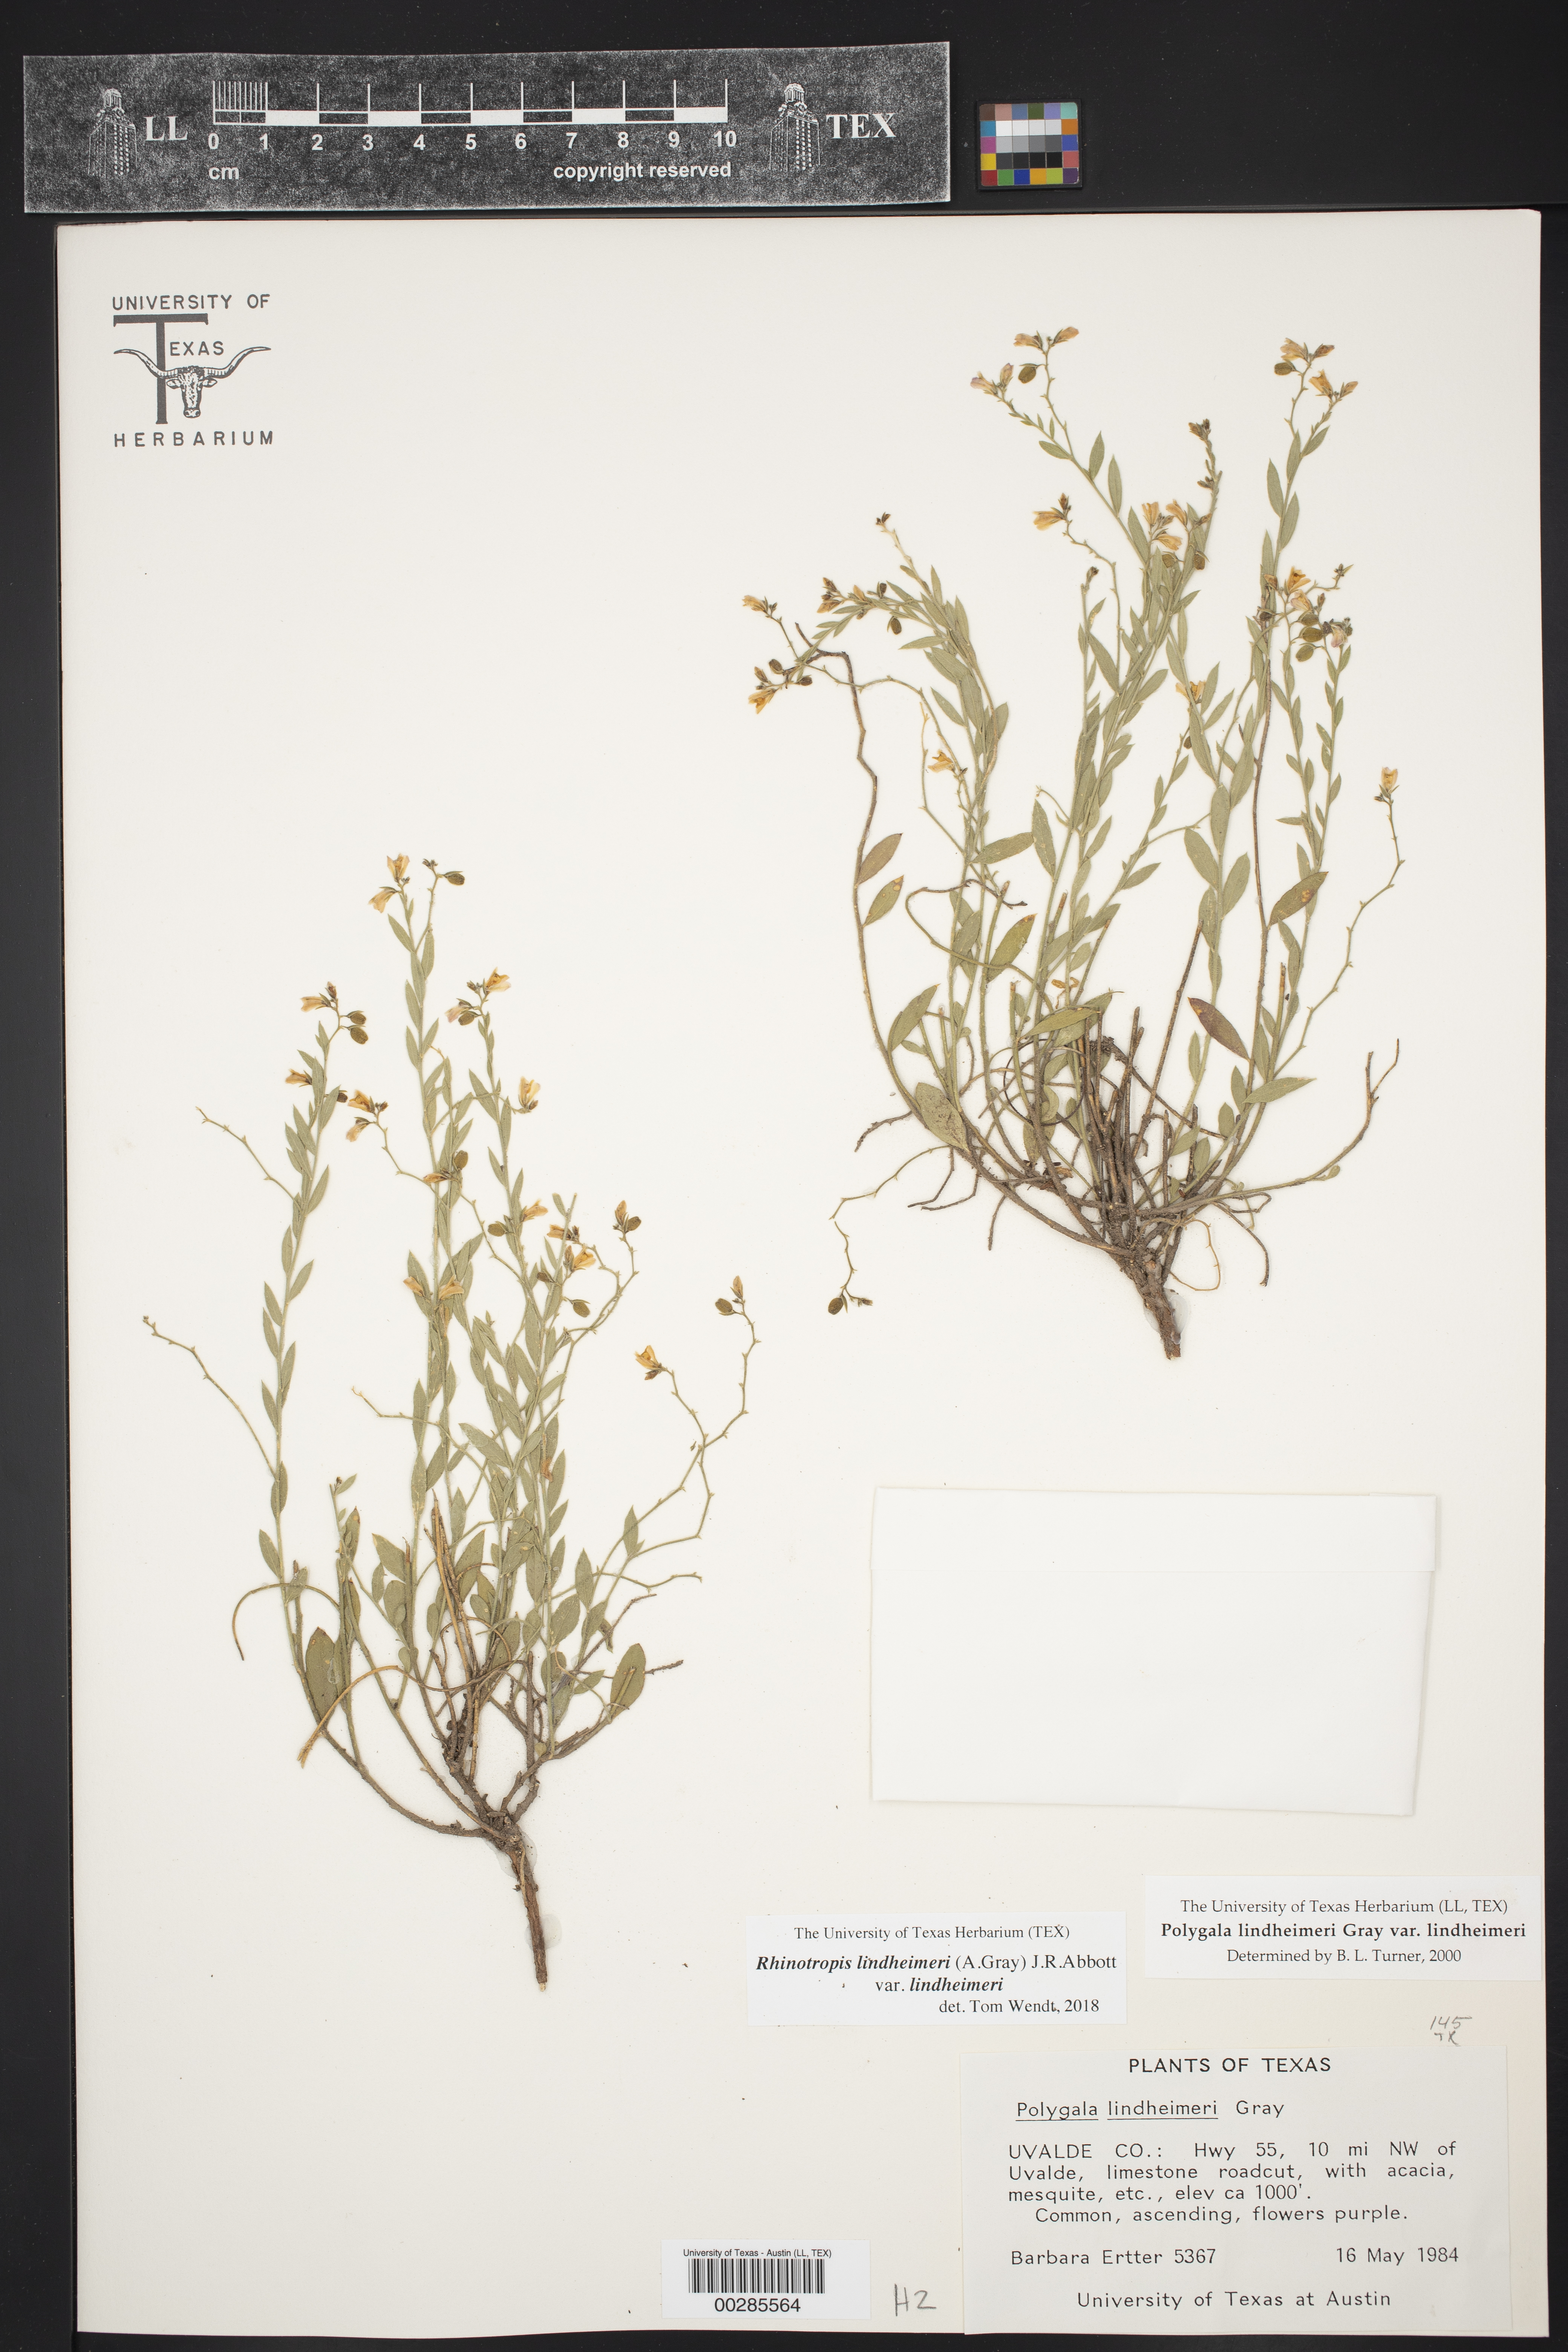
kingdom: Plantae
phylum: Tracheophyta
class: Magnoliopsida
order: Fabales
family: Polygalaceae
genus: Rhinotropis
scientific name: Rhinotropis lindheimeri
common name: Shrubby milkwort
